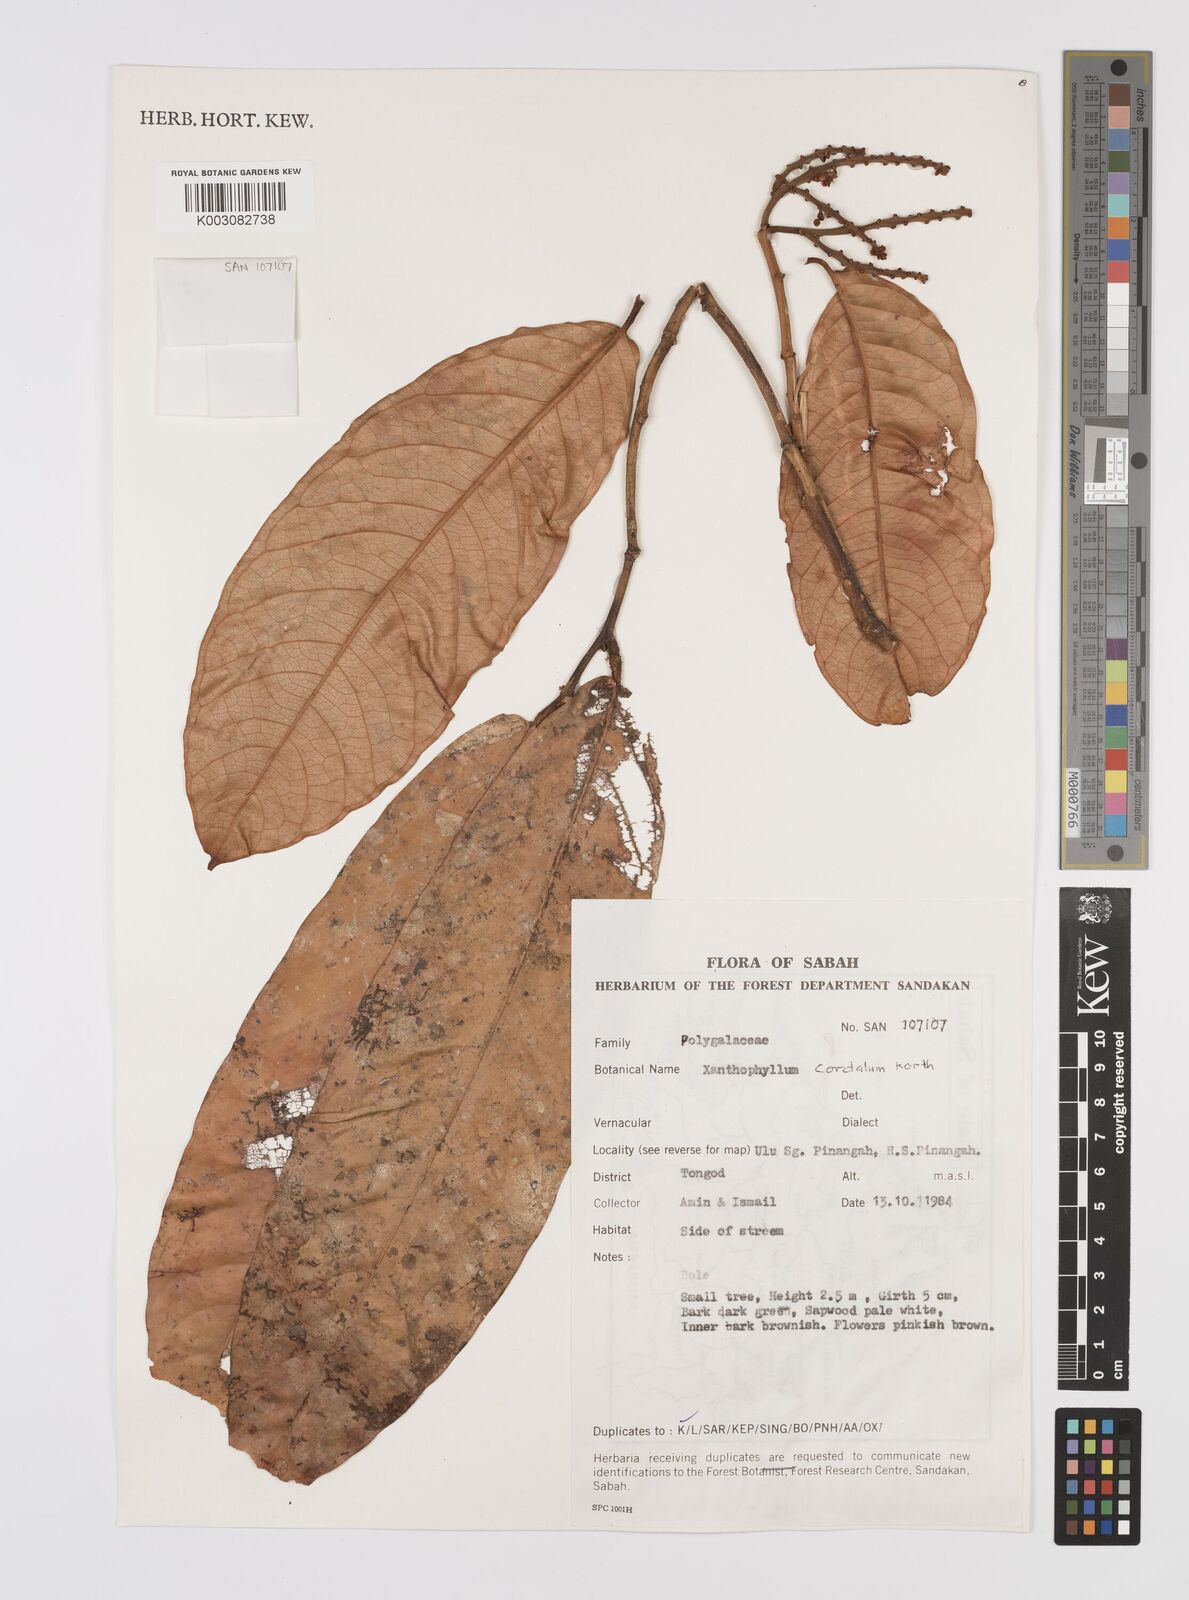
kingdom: Plantae
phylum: Tracheophyta
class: Magnoliopsida
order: Fabales
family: Polygalaceae
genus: Xanthophyllum
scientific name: Xanthophyllum adenotus
